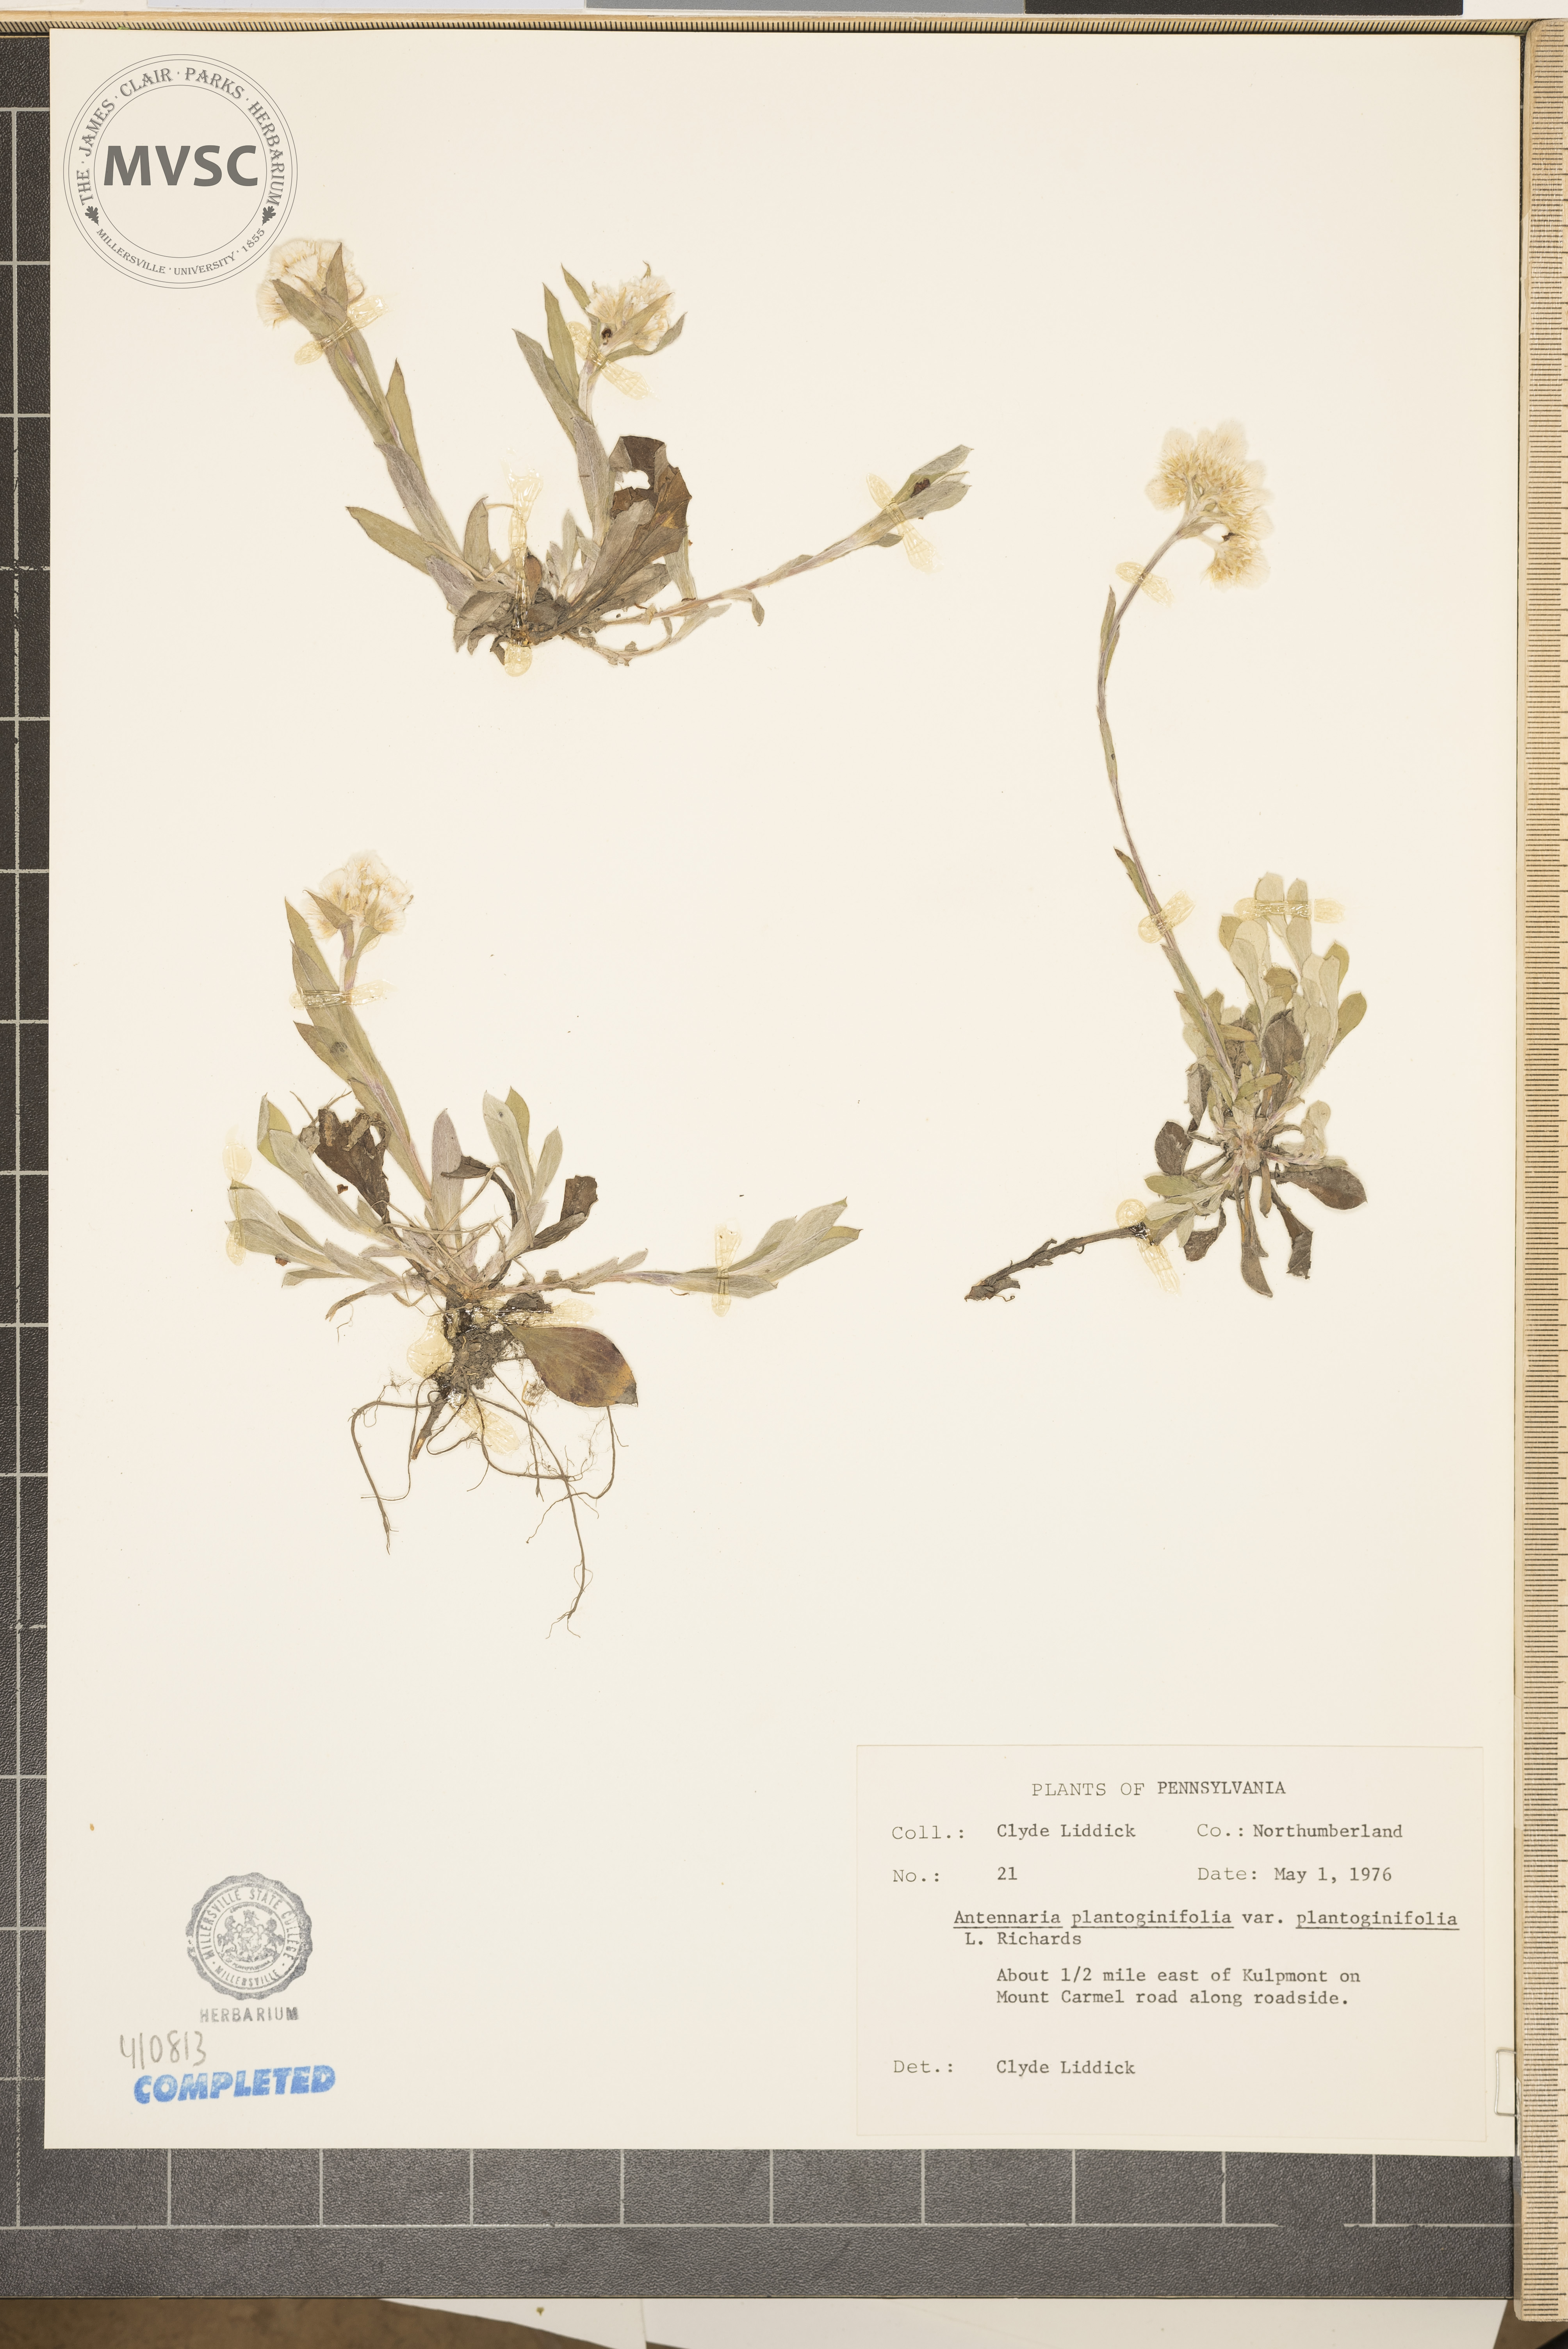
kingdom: Plantae
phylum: Tracheophyta
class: Magnoliopsida
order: Asterales
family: Asteraceae
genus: Antennaria
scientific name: Antennaria plantaginifolia
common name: Plantain-leaved pussytoes
